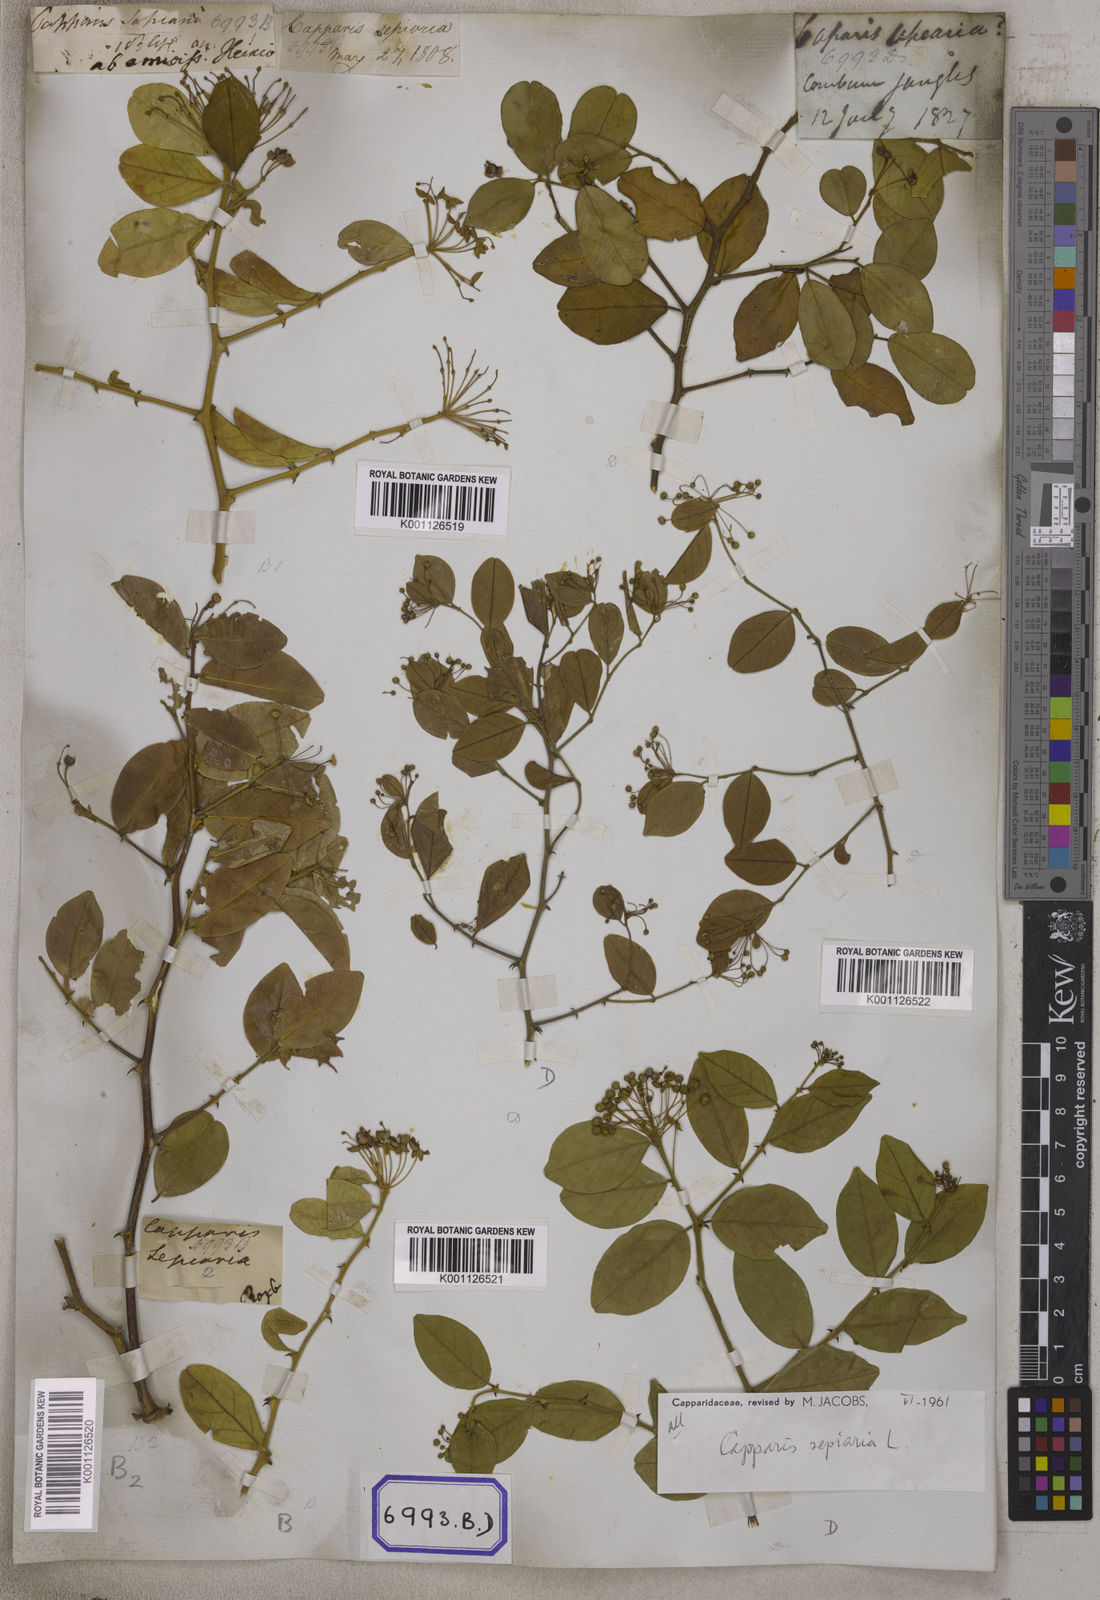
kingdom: Plantae
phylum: Tracheophyta
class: Magnoliopsida
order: Brassicales
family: Capparaceae
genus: Capparis
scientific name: Capparis
